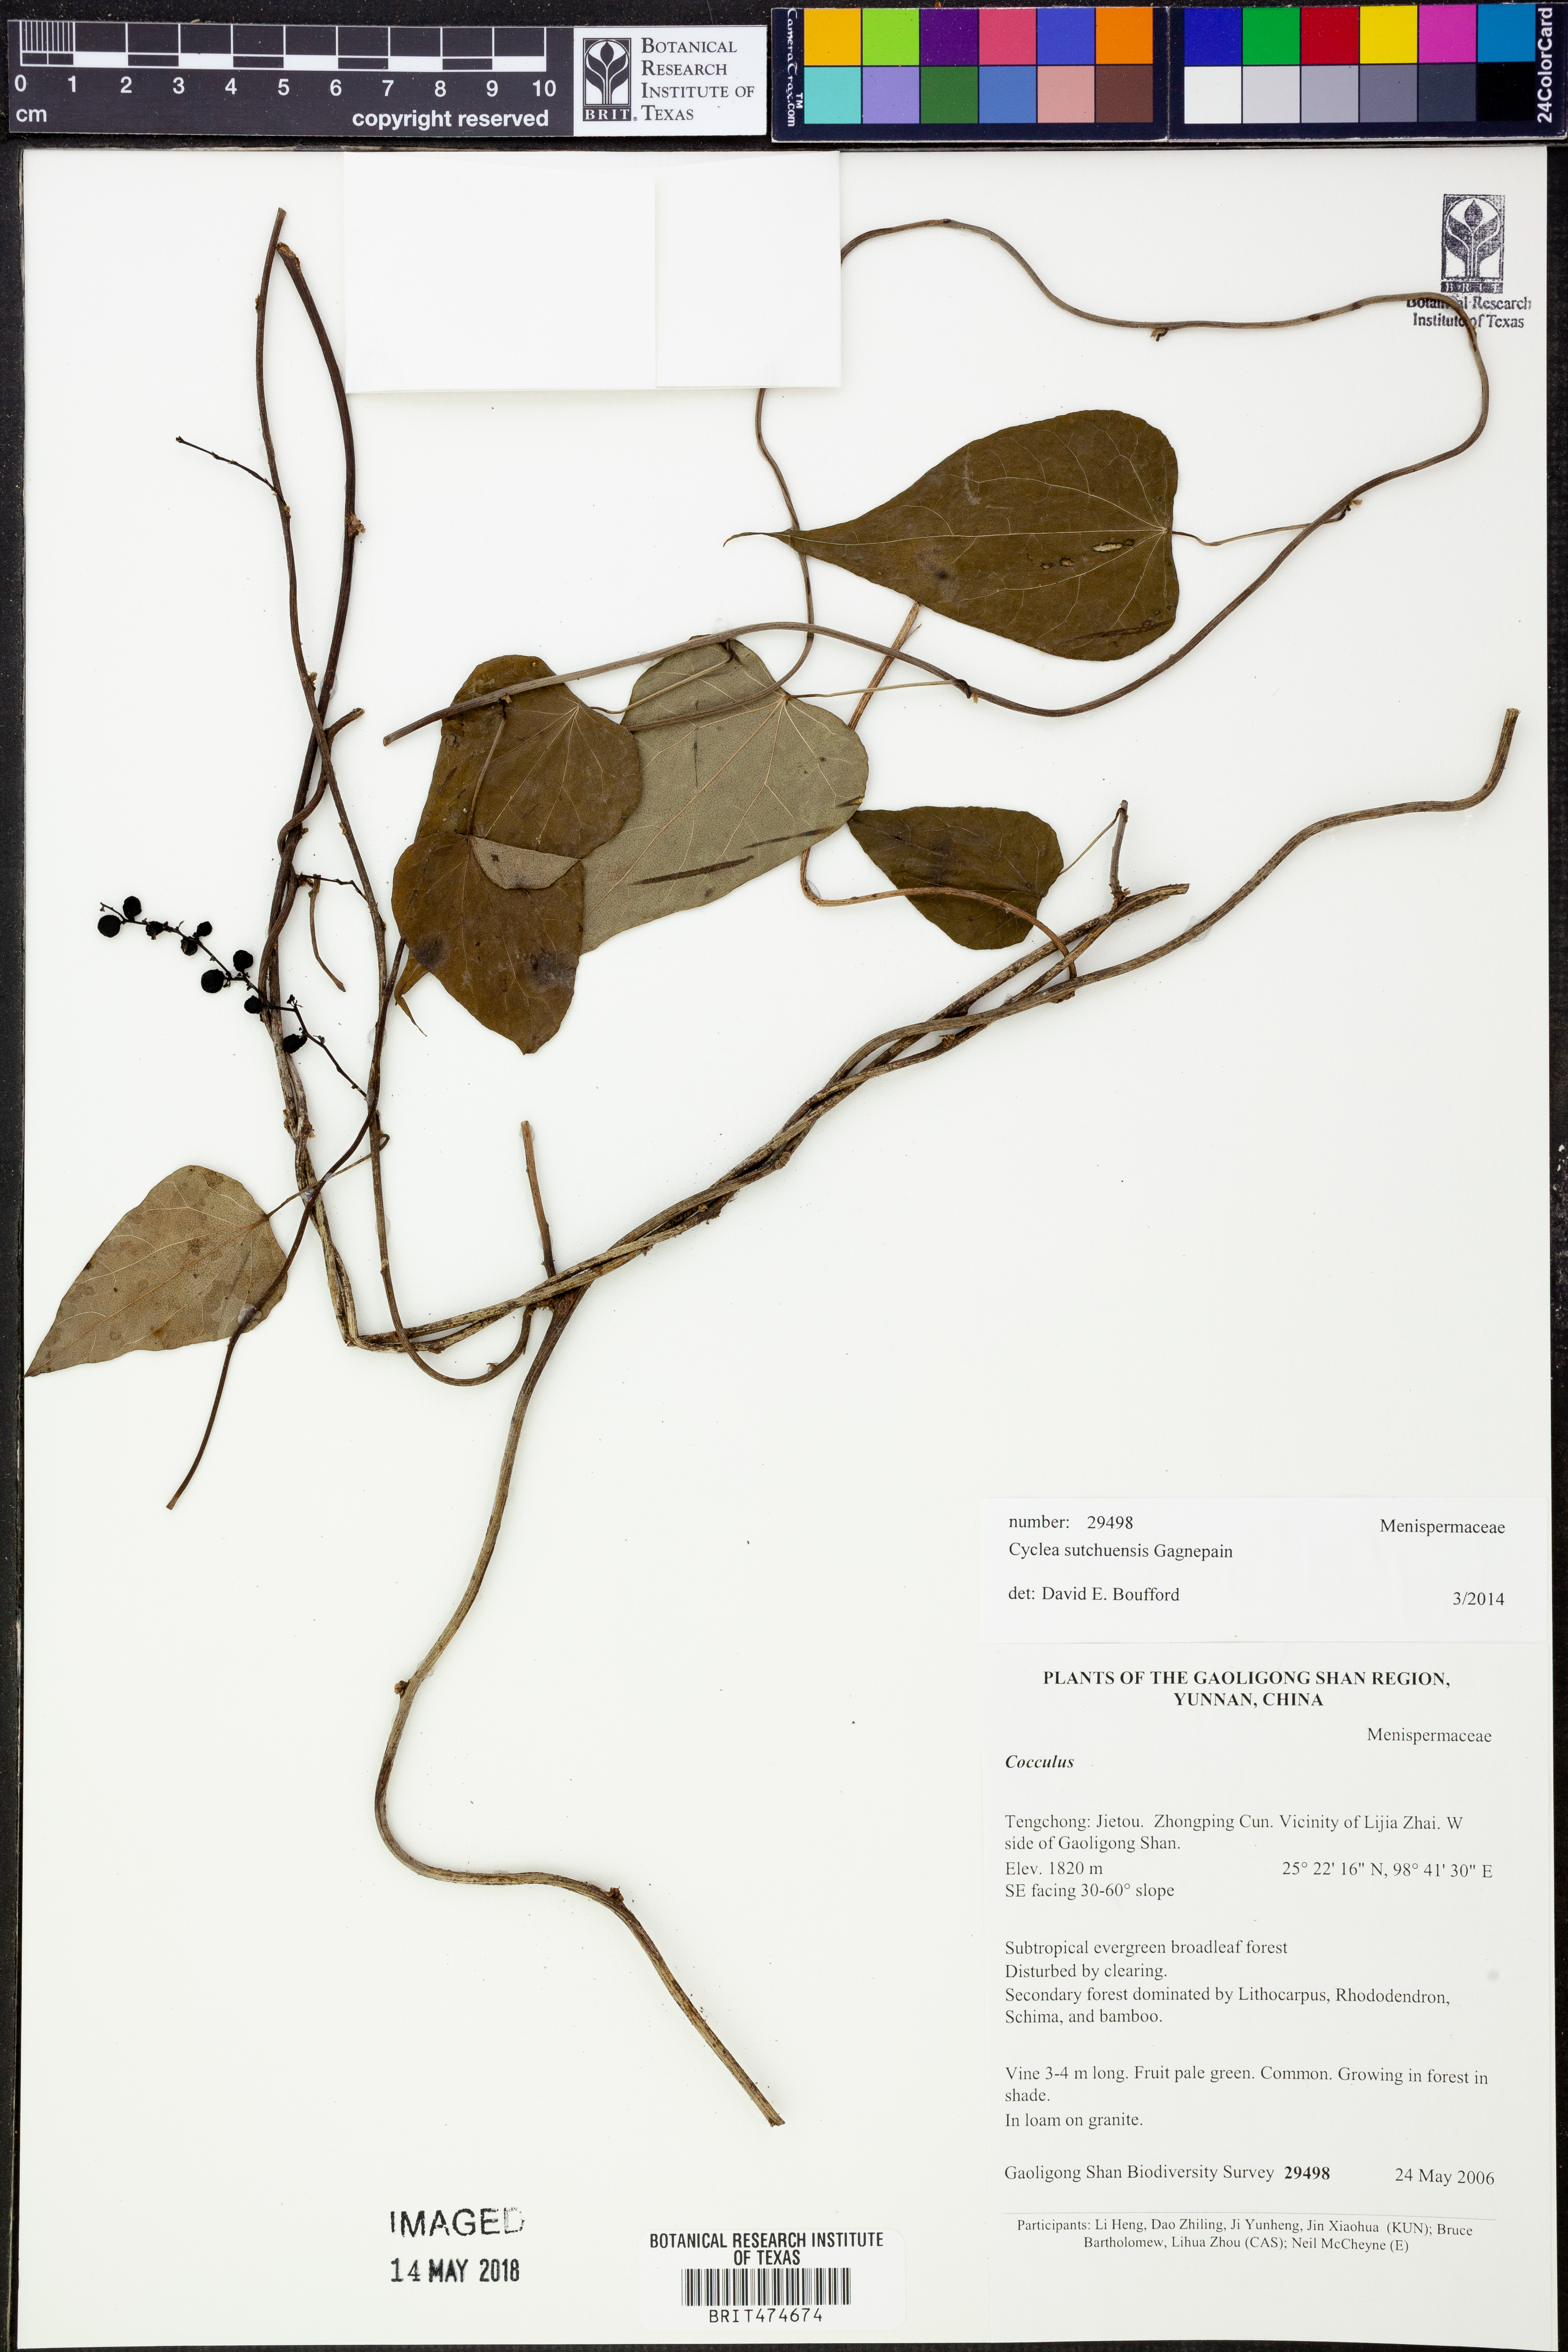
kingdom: Plantae
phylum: Tracheophyta
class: Magnoliopsida
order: Ranunculales
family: Menispermaceae
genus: Cyclea
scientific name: Cyclea sutchuenensis
